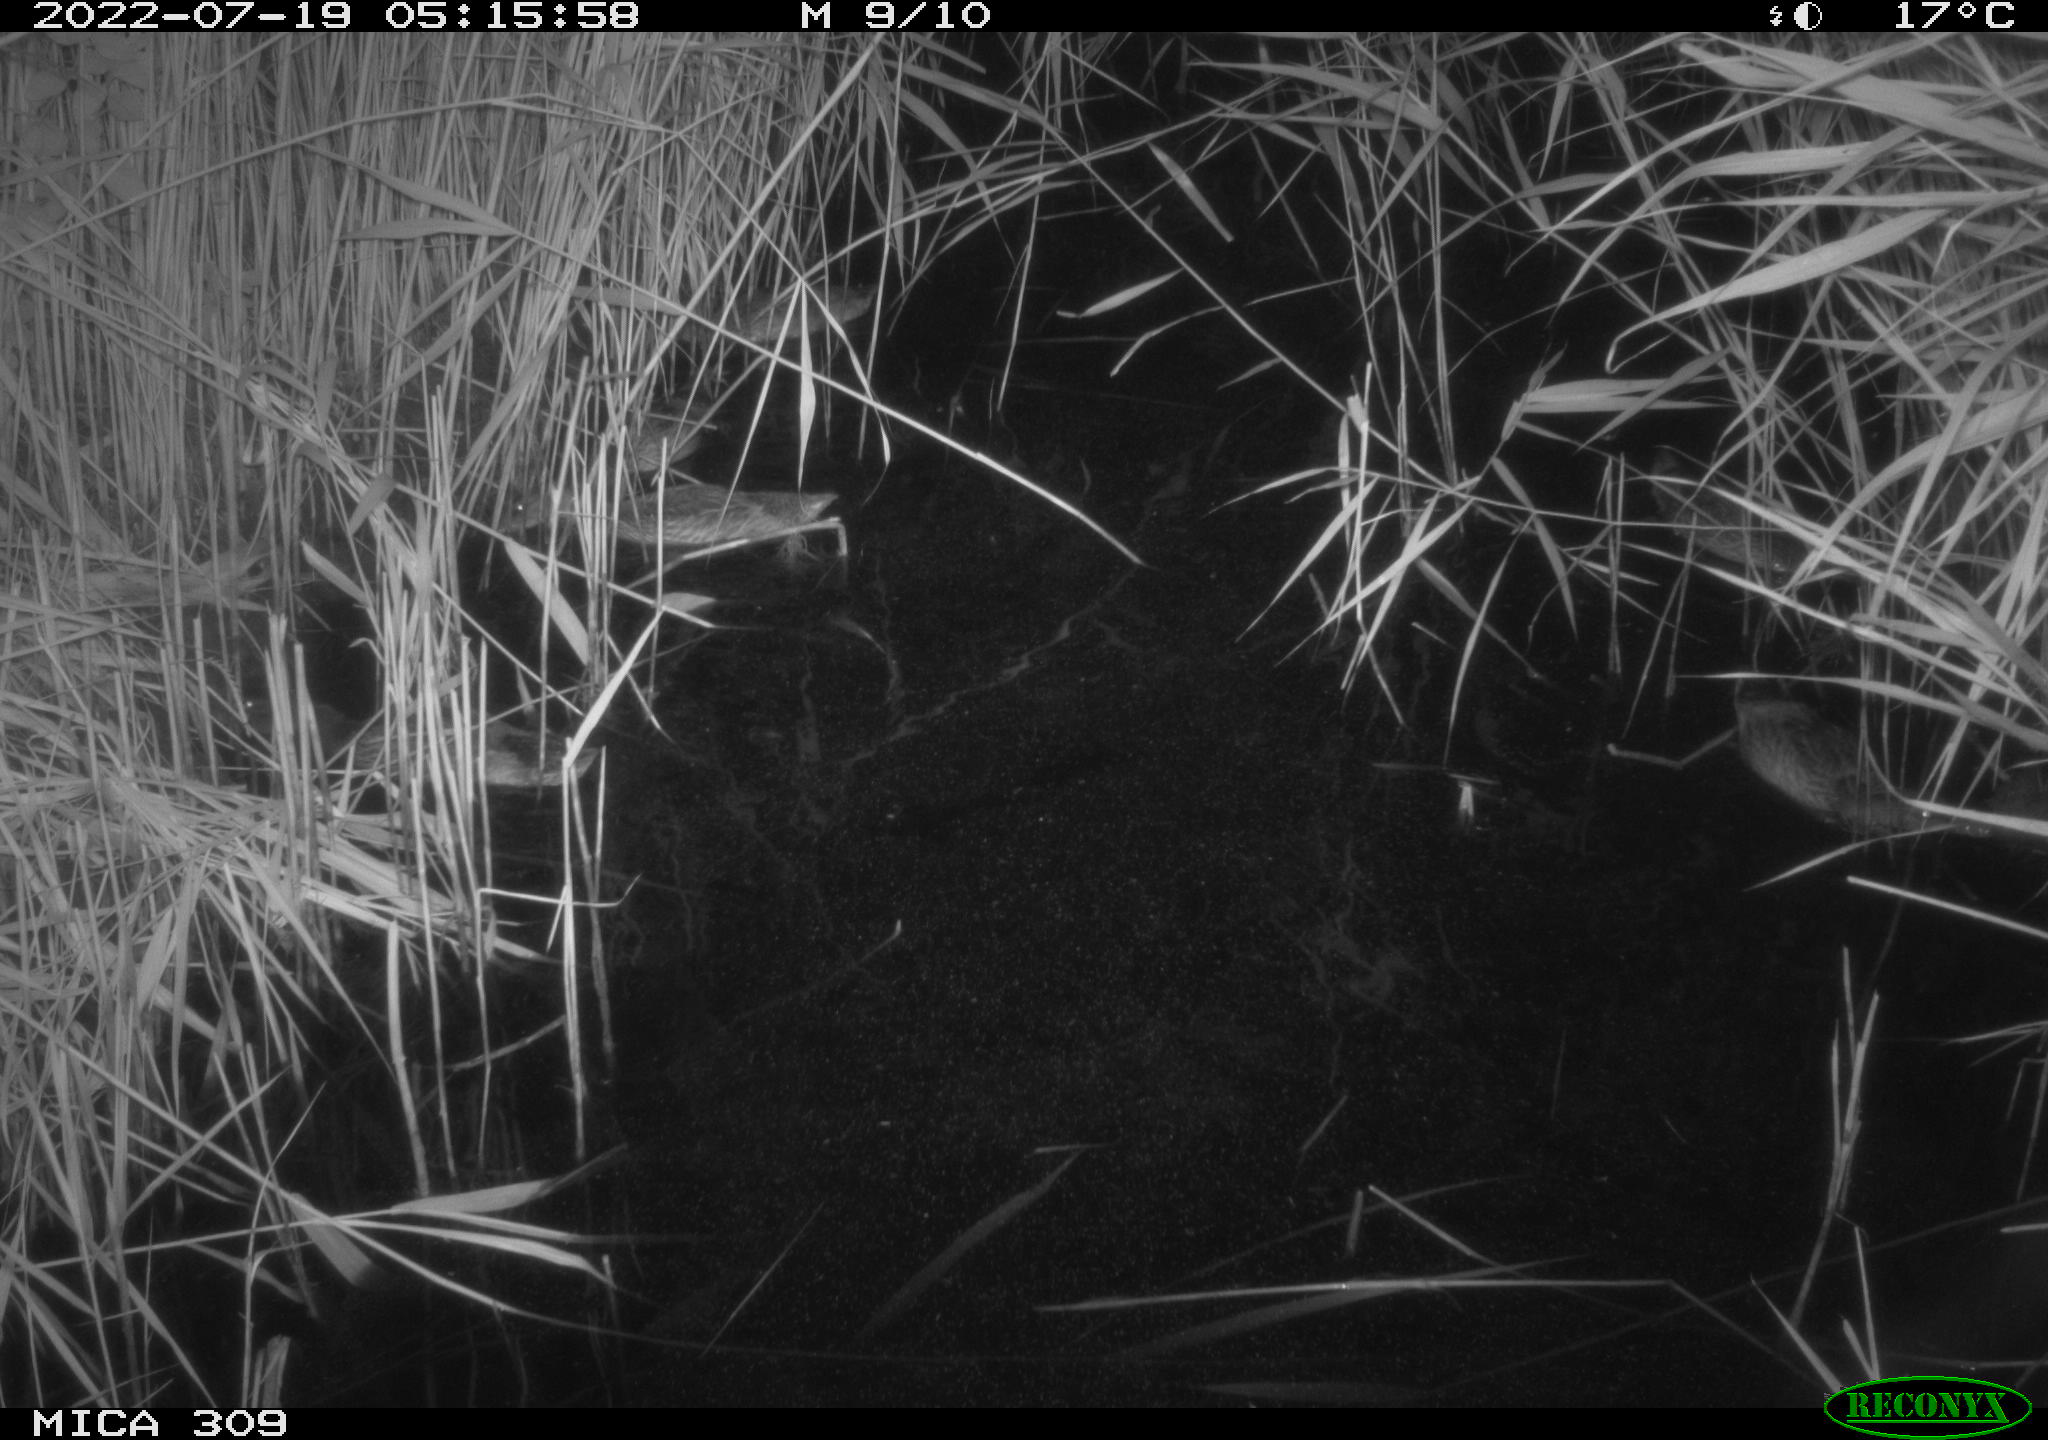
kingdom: Animalia
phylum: Chordata
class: Aves
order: Anseriformes
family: Anatidae
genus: Anas
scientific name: Anas platyrhynchos
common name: Mallard
